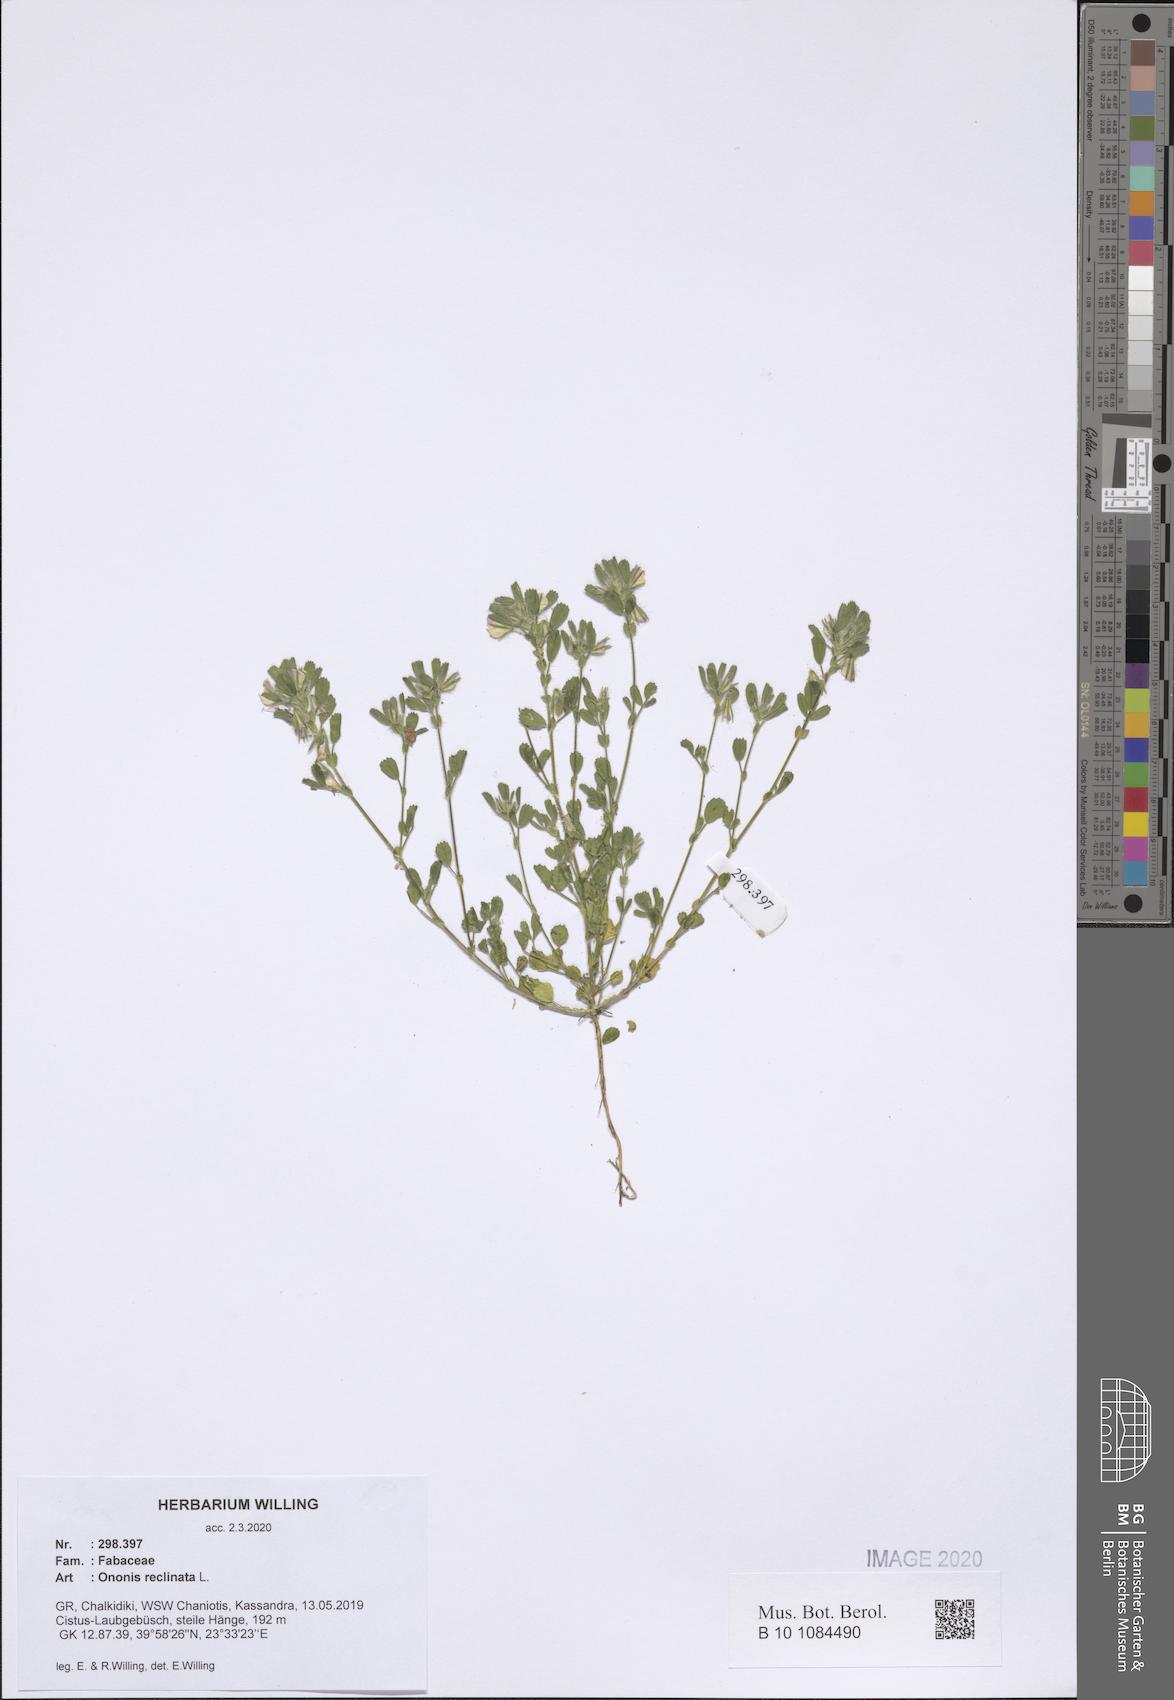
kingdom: Plantae
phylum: Tracheophyta
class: Magnoliopsida
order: Fabales
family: Fabaceae
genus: Ononis
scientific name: Ononis reclinata
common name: Small restharrow
